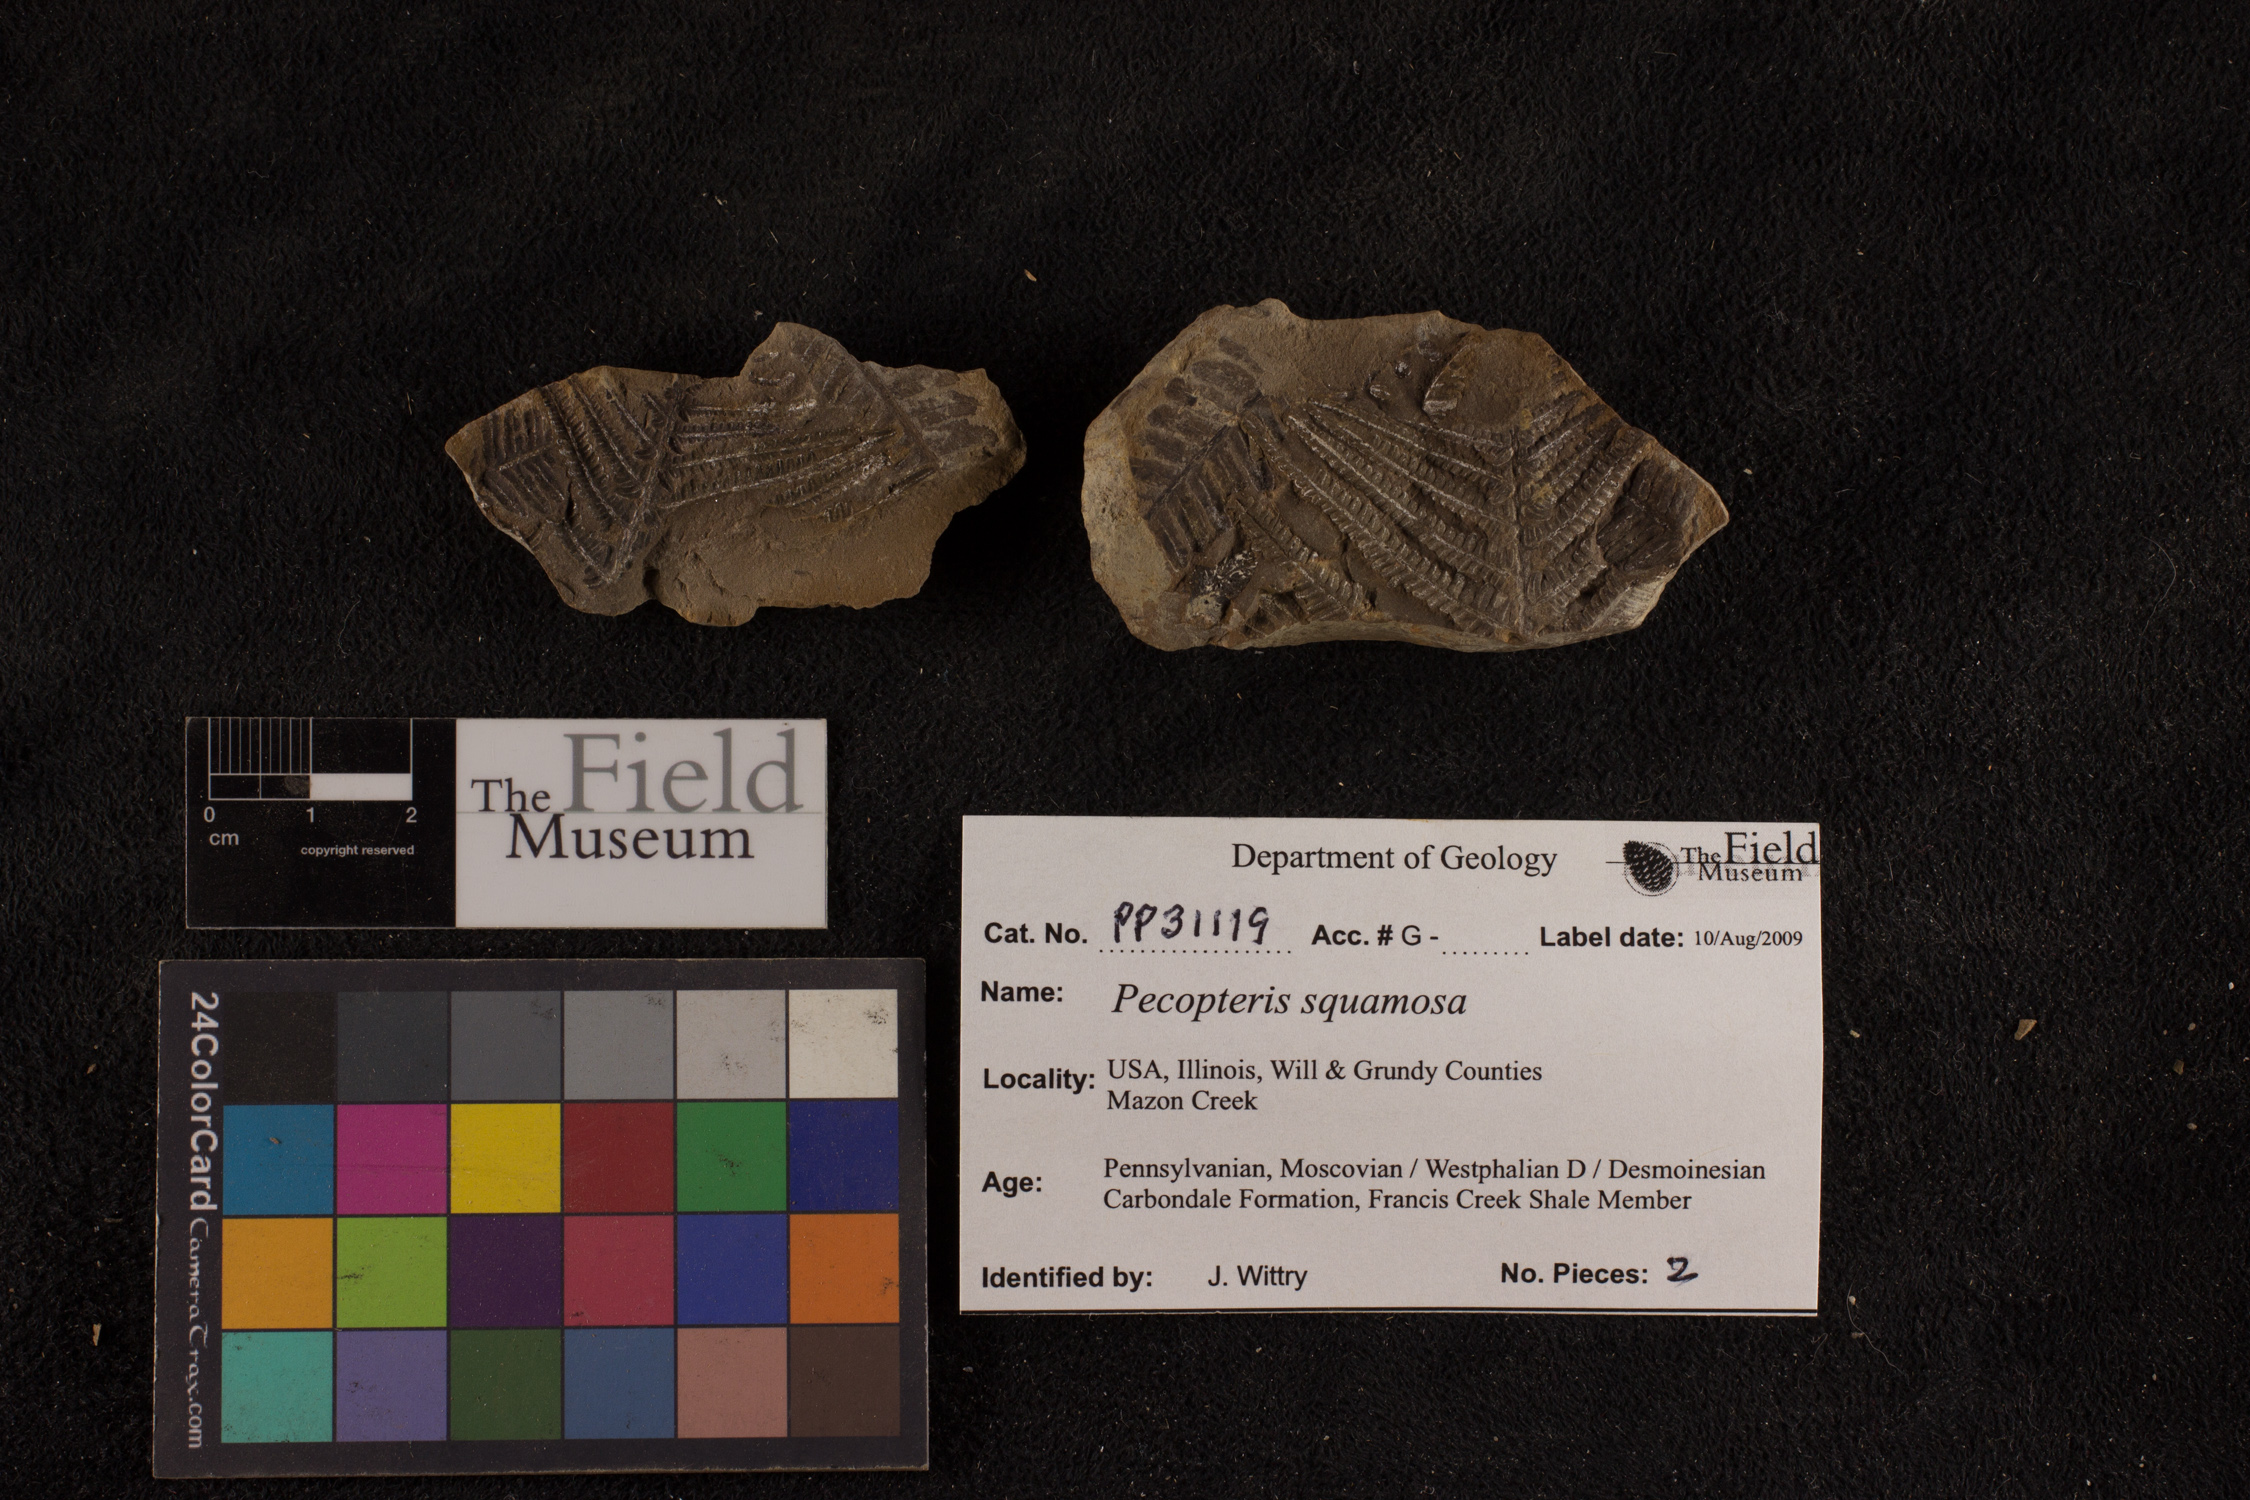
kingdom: Plantae
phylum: Tracheophyta
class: Polypodiopsida
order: Marattiales
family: Asterothecaceae
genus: Pecopteris
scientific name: Pecopteris
